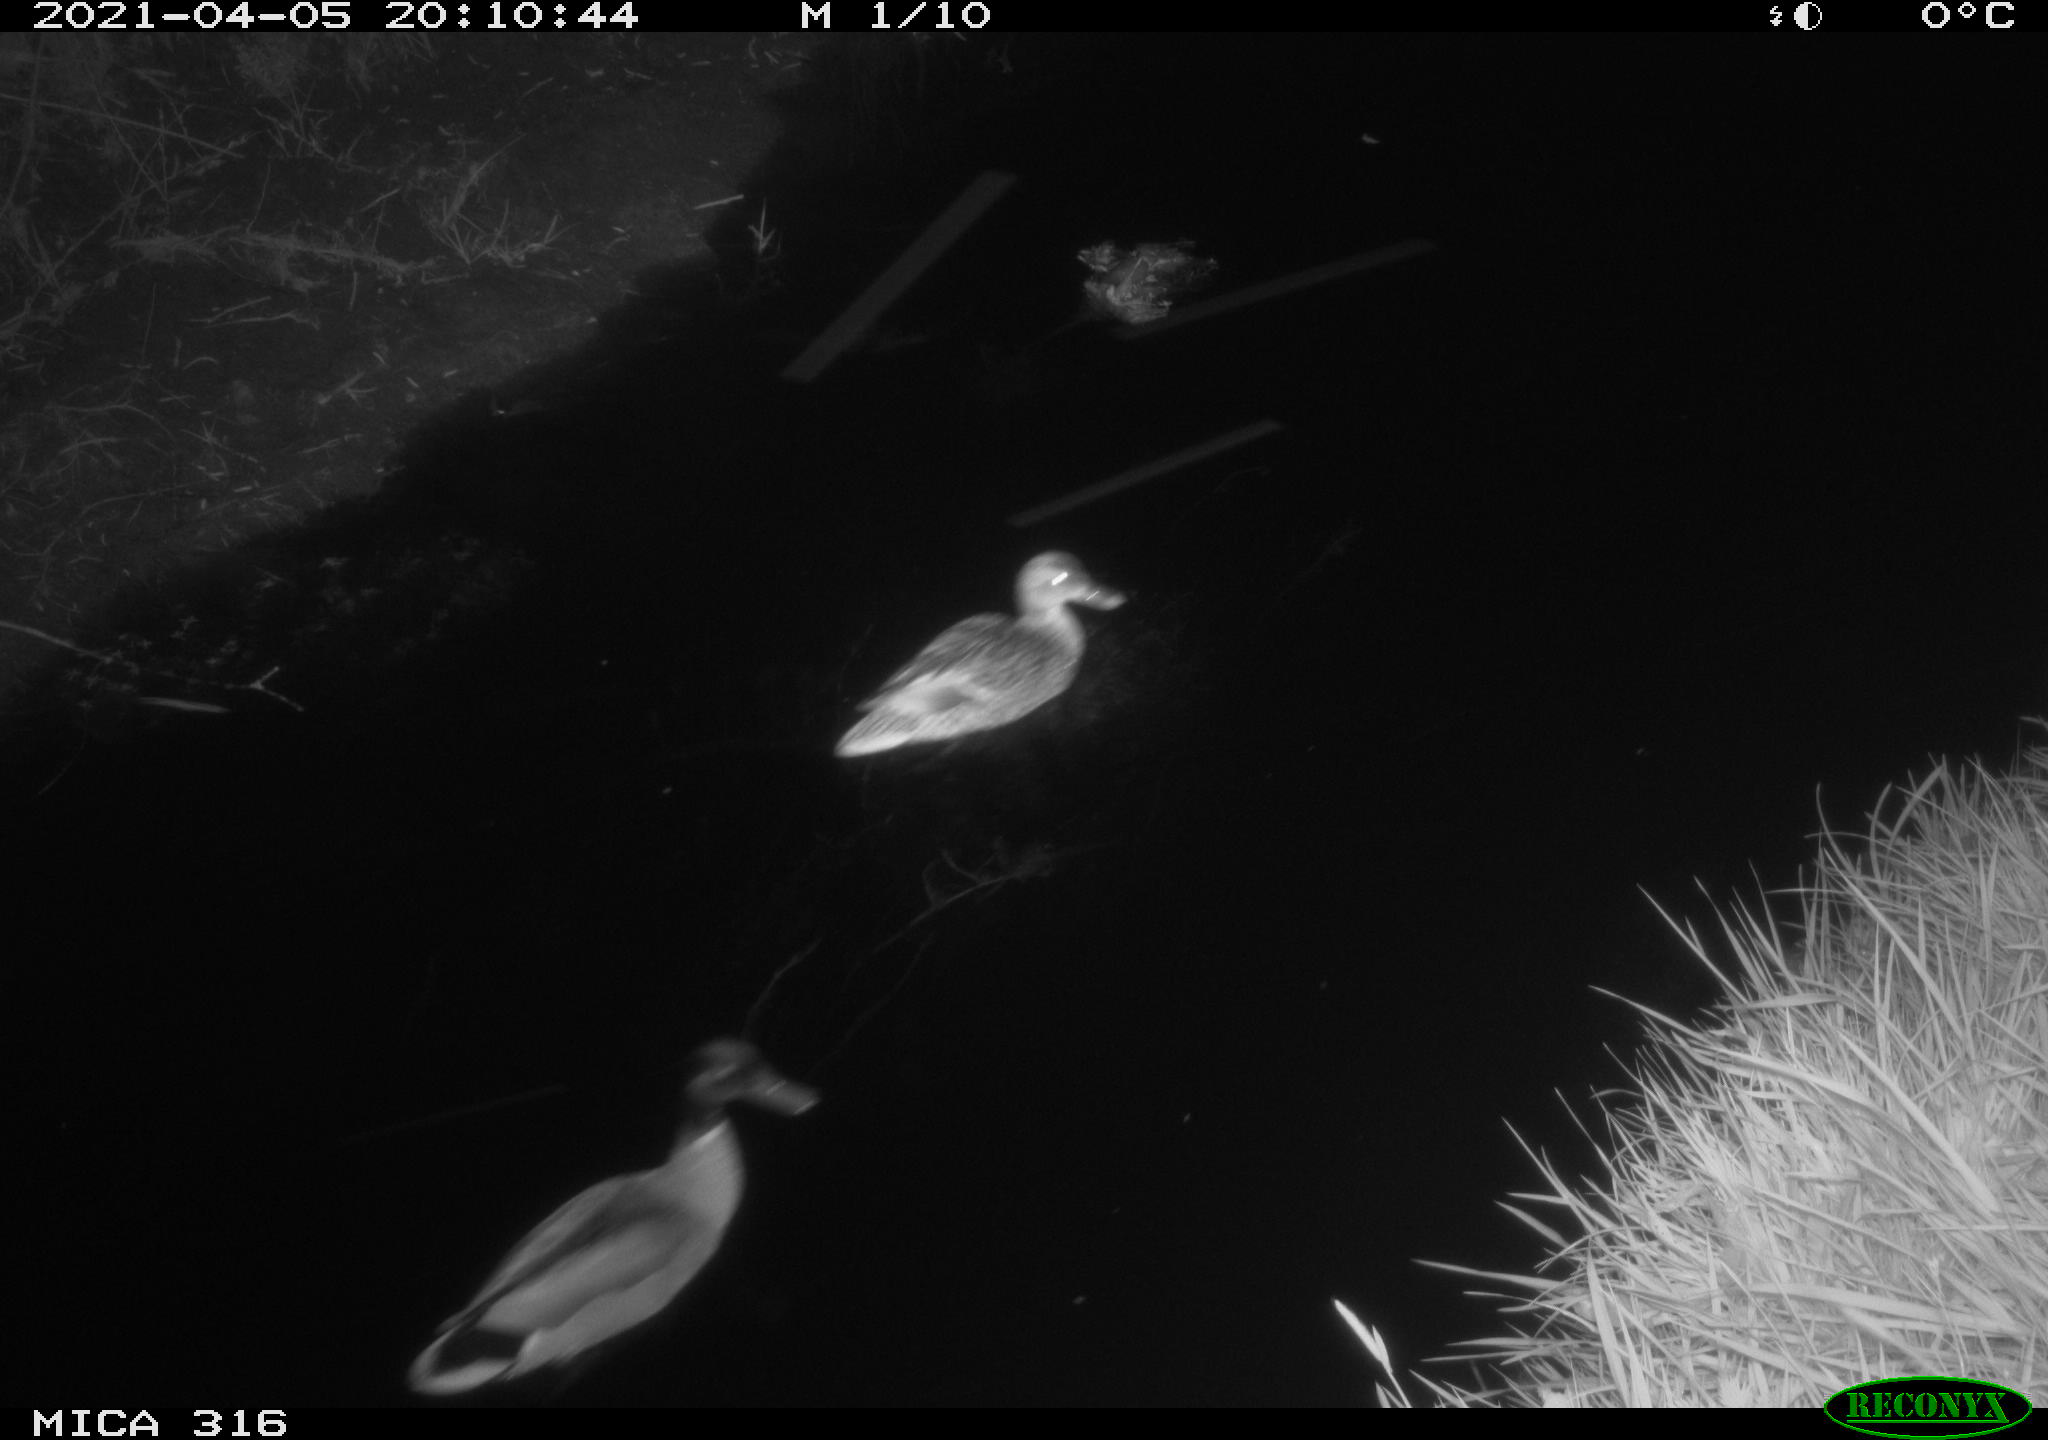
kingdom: Animalia
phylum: Chordata
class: Aves
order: Anseriformes
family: Anatidae
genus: Anas
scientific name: Anas platyrhynchos
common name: Mallard
